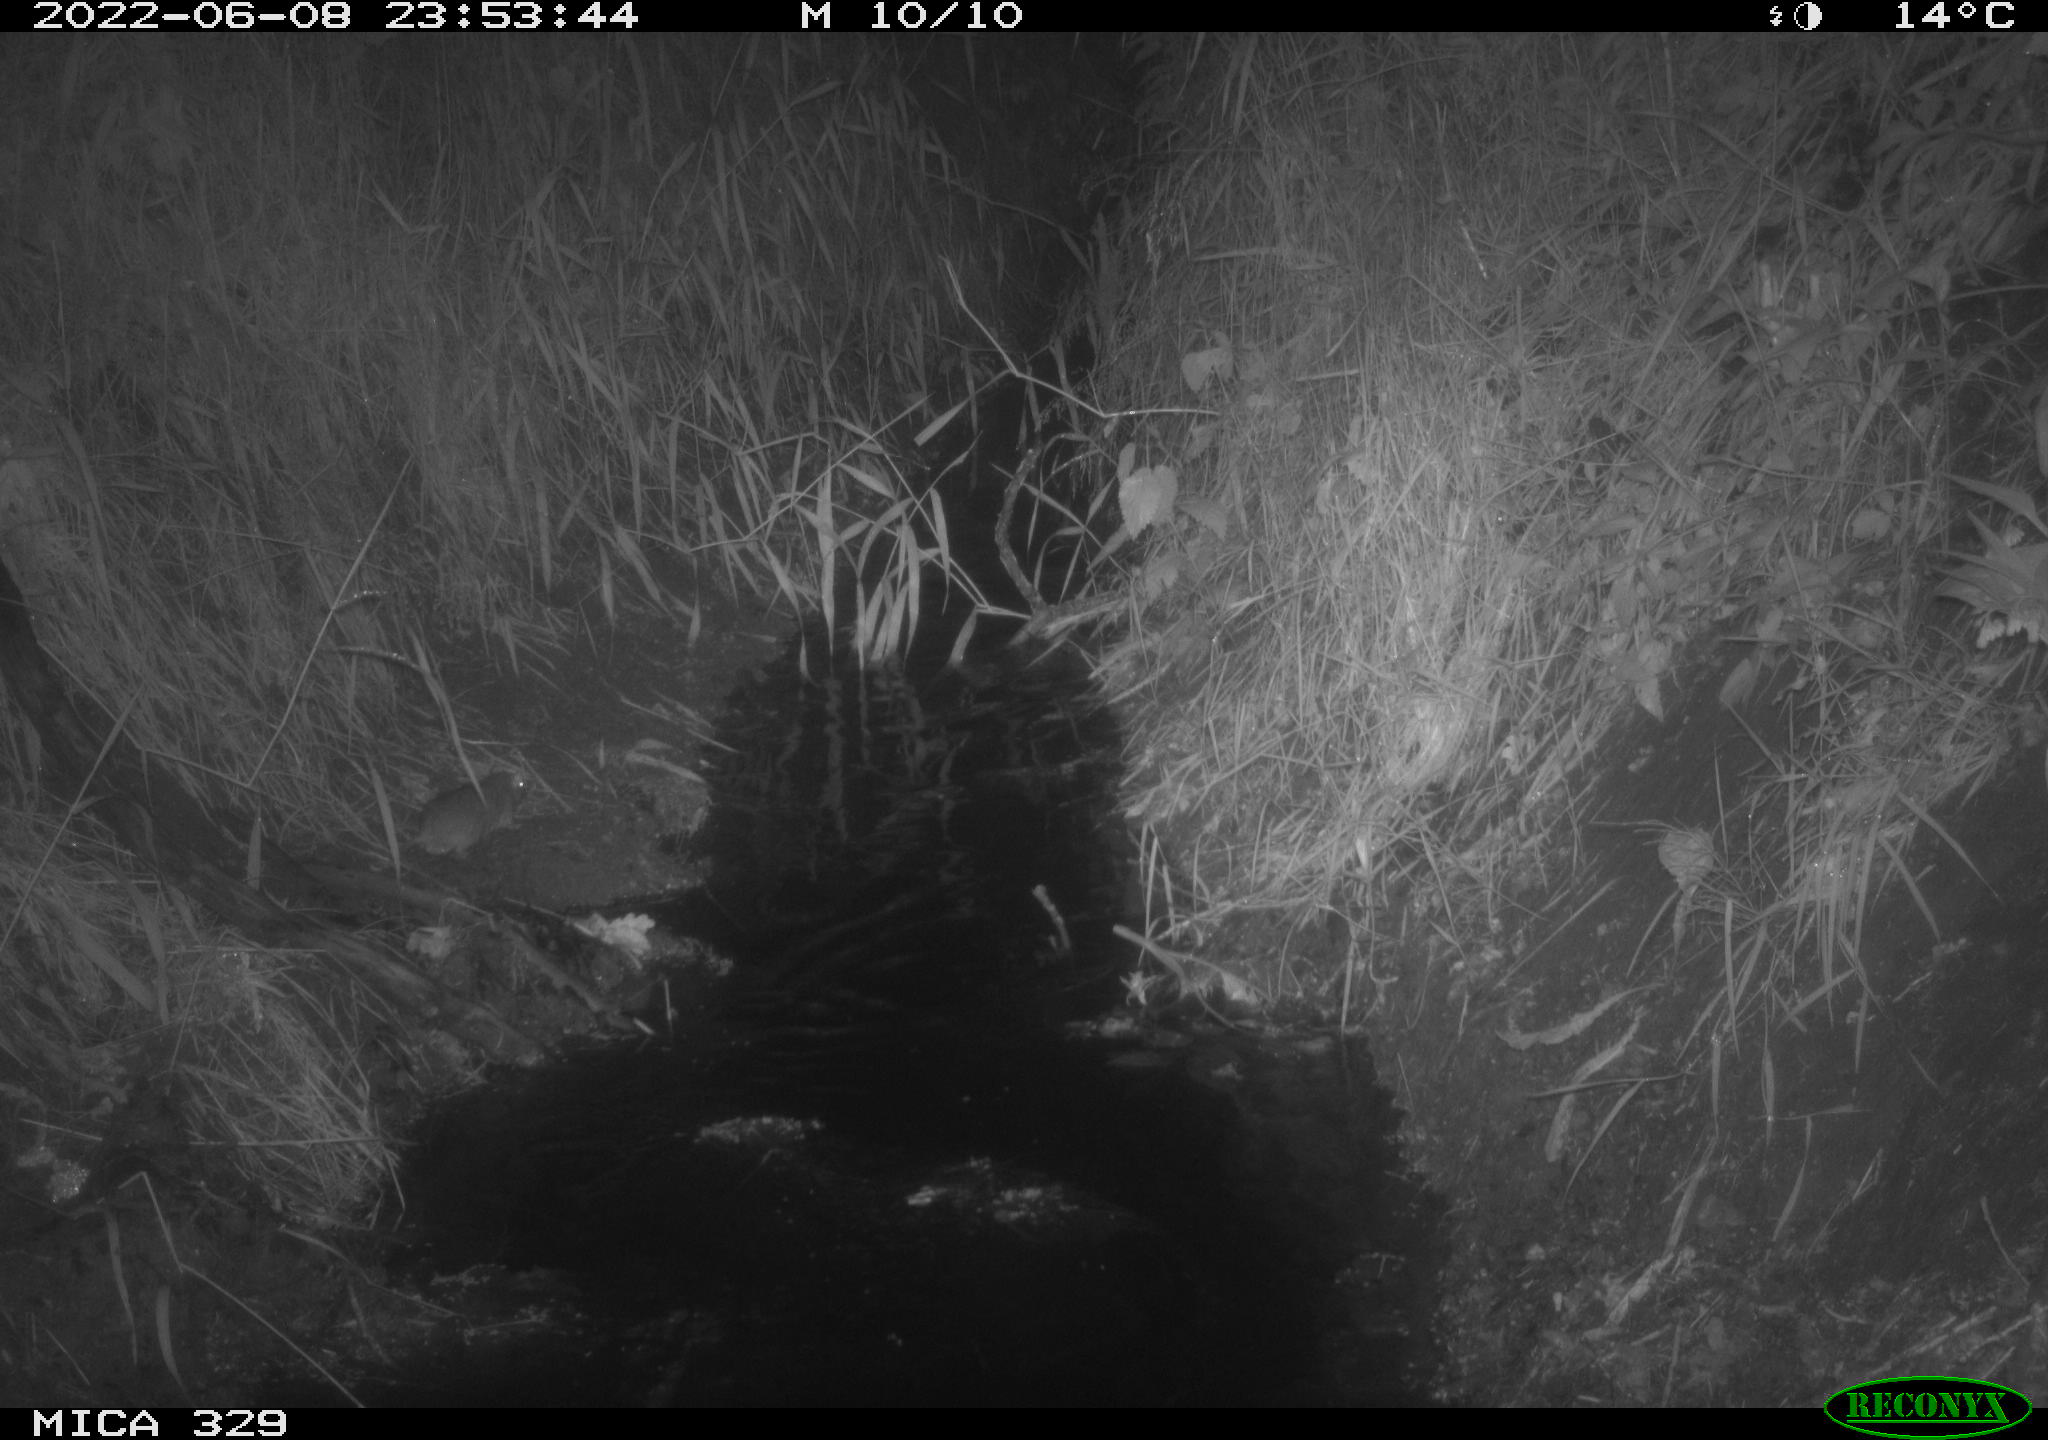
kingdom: Animalia
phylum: Chordata
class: Mammalia
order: Rodentia
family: Muridae
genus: Rattus
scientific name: Rattus norvegicus
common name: Brown rat
